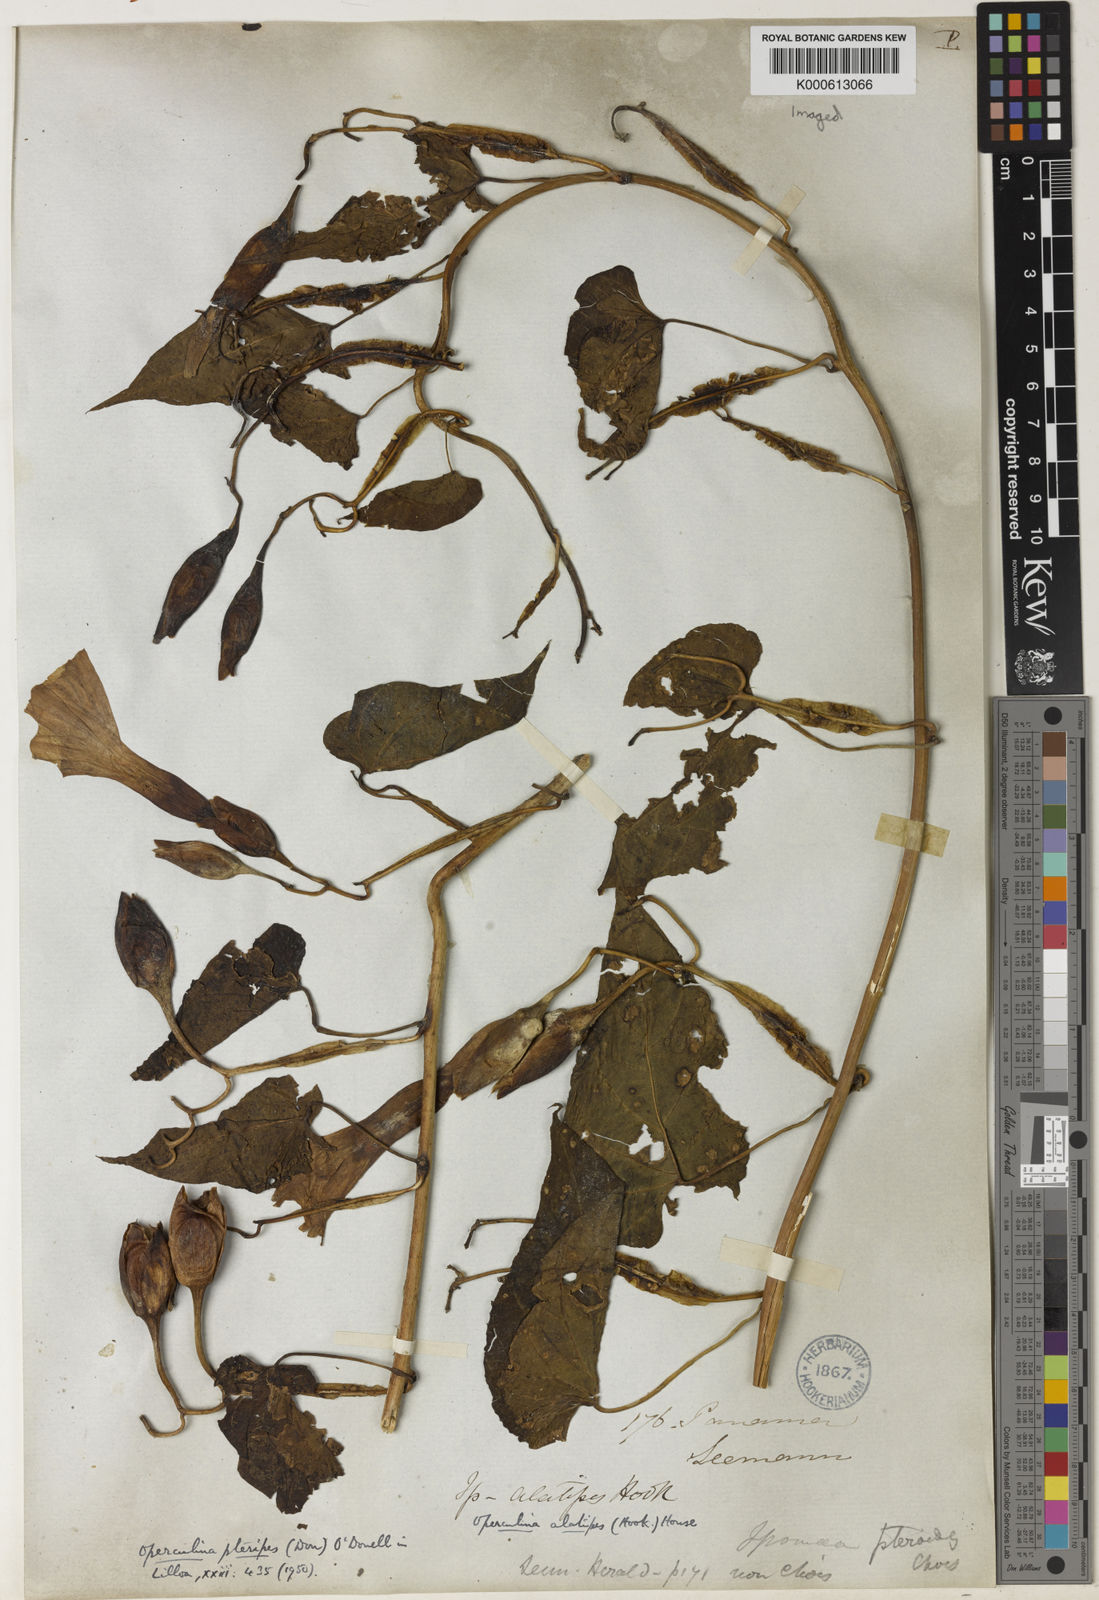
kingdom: Plantae
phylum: Tracheophyta
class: Magnoliopsida
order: Solanales
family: Convolvulaceae
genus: Operculina
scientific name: Operculina pteripes
